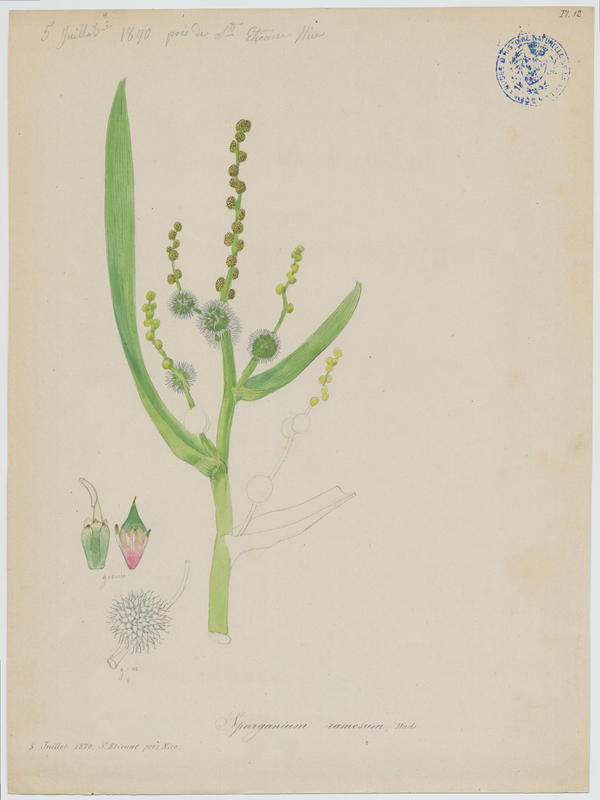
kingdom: Plantae
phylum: Tracheophyta
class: Liliopsida
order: Poales
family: Typhaceae
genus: Sparganium
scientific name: Sparganium erectum
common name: Branched bur-reed
